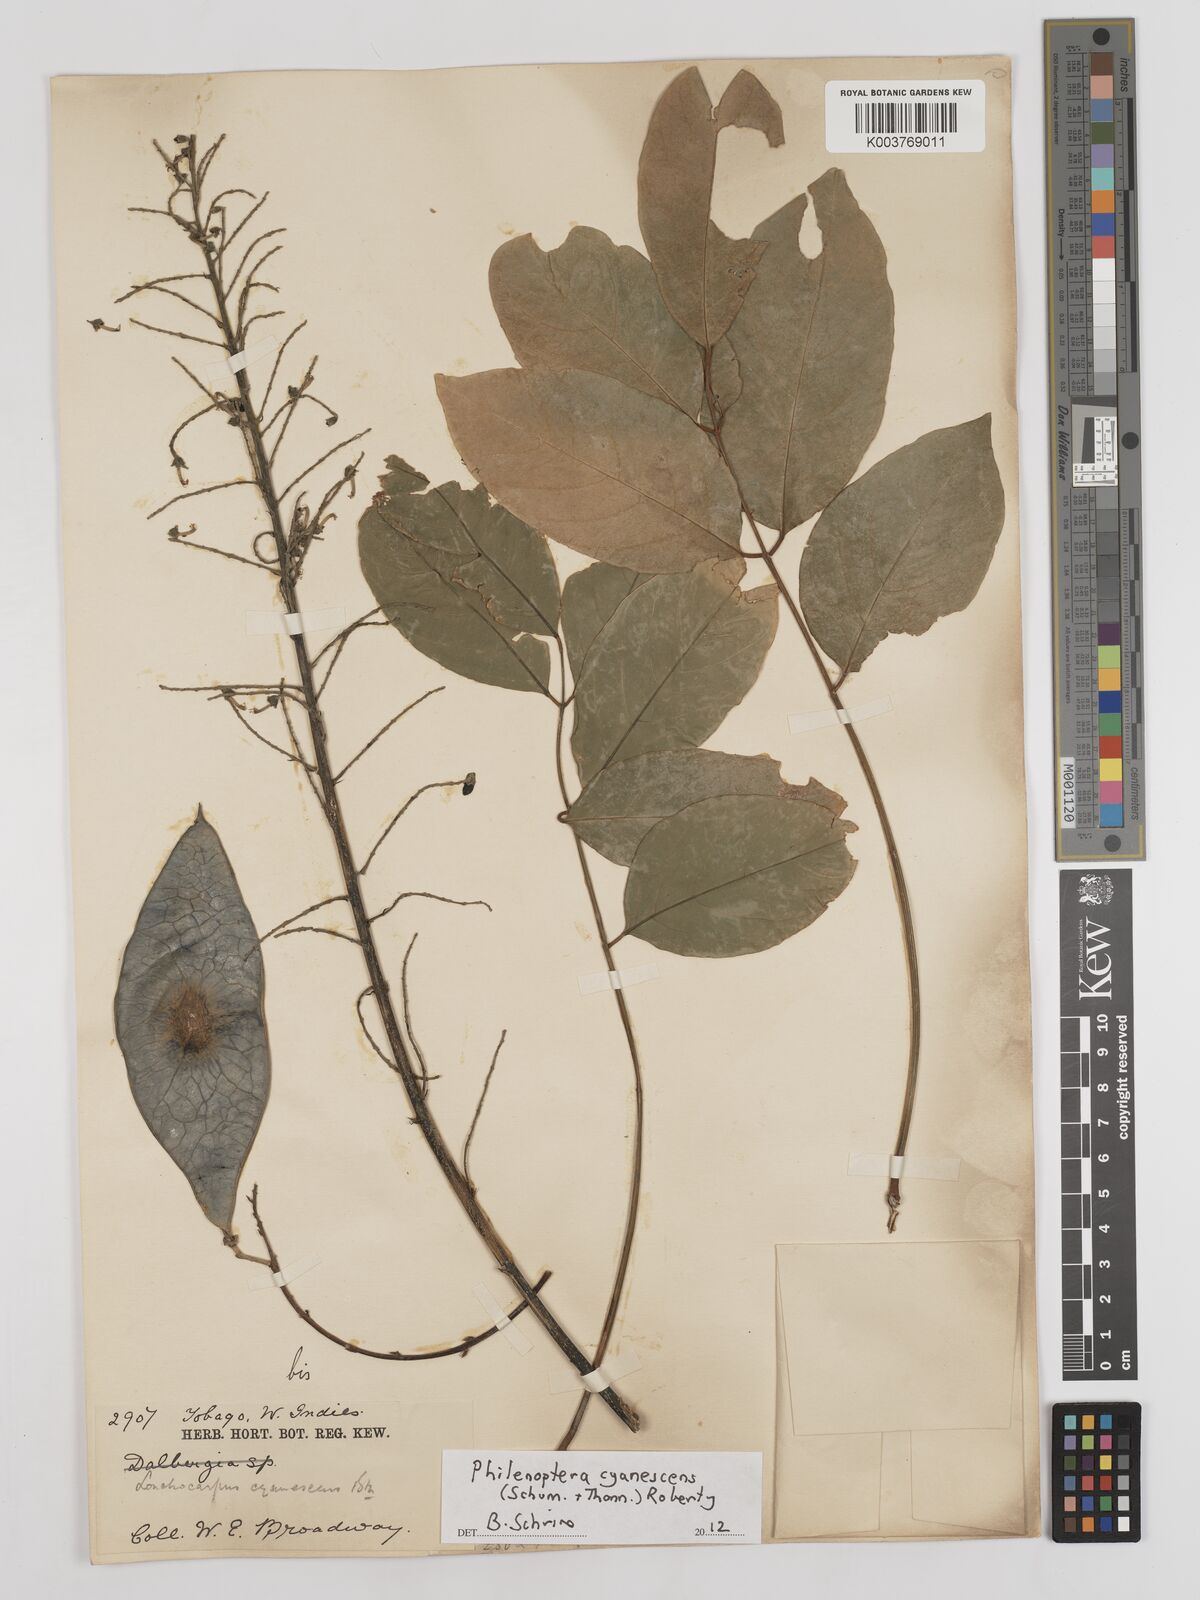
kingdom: Plantae
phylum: Tracheophyta
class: Magnoliopsida
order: Fabales
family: Fabaceae
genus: Philenoptera
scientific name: Philenoptera cyanescens
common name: West african-indigo
